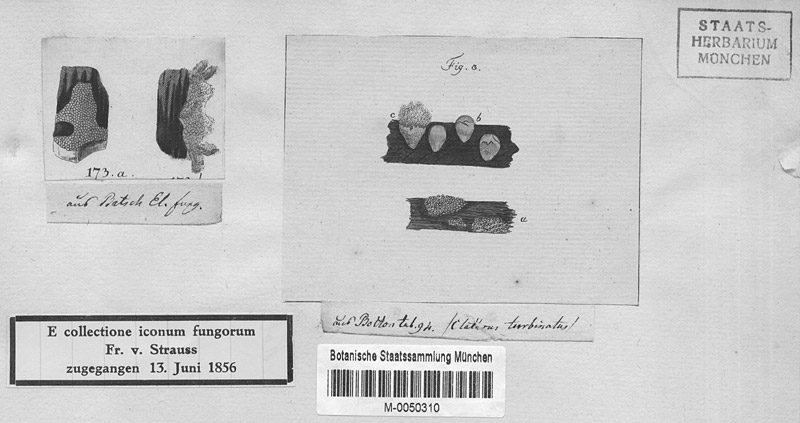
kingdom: Protozoa
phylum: Mycetozoa
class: Myxomycetes
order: Trichiales
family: Trichiaceae
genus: Oligonema
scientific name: Oligonema favogineum
